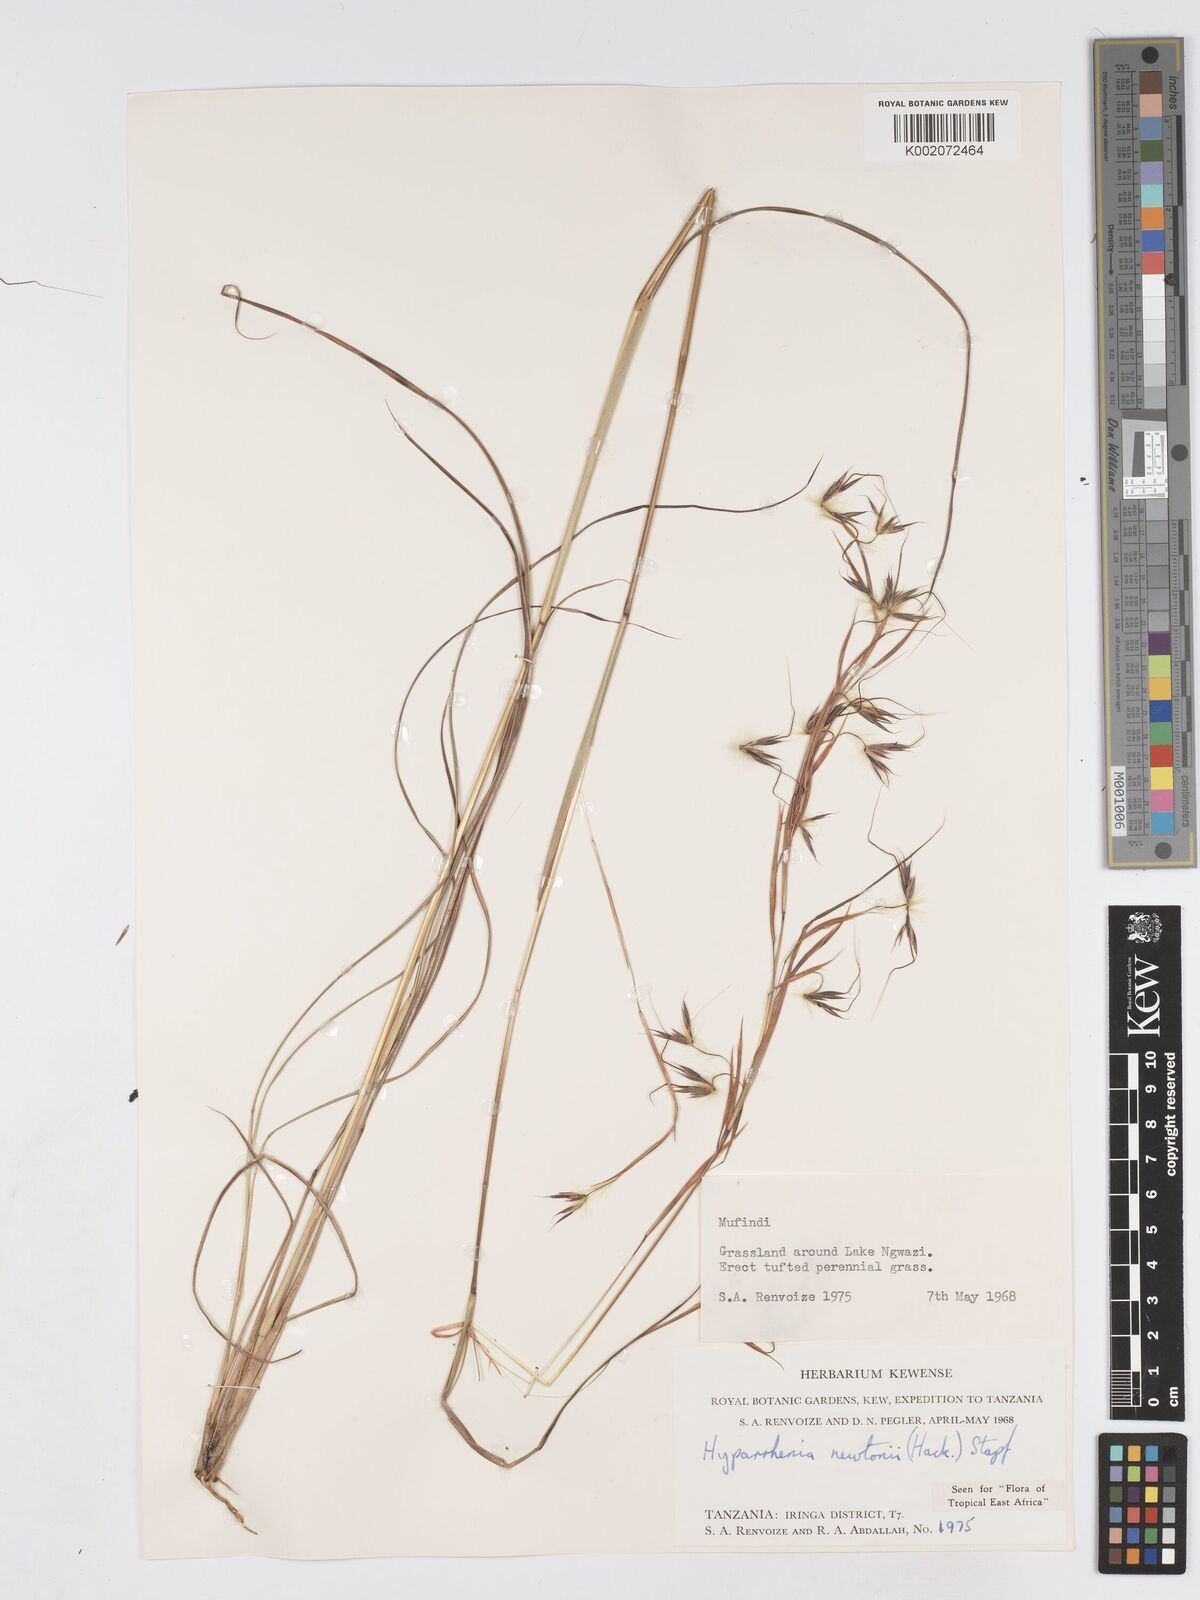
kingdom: Plantae
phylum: Tracheophyta
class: Liliopsida
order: Poales
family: Poaceae
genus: Hyparrhenia
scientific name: Hyparrhenia newtonii
